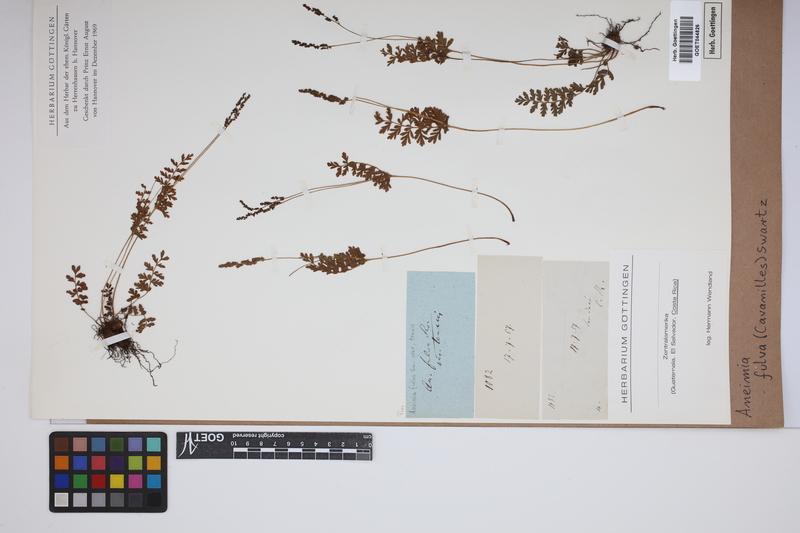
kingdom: Plantae
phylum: Tracheophyta
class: Polypodiopsida
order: Schizaeales
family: Anemiaceae
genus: Anemia
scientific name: Anemia ferruginea
